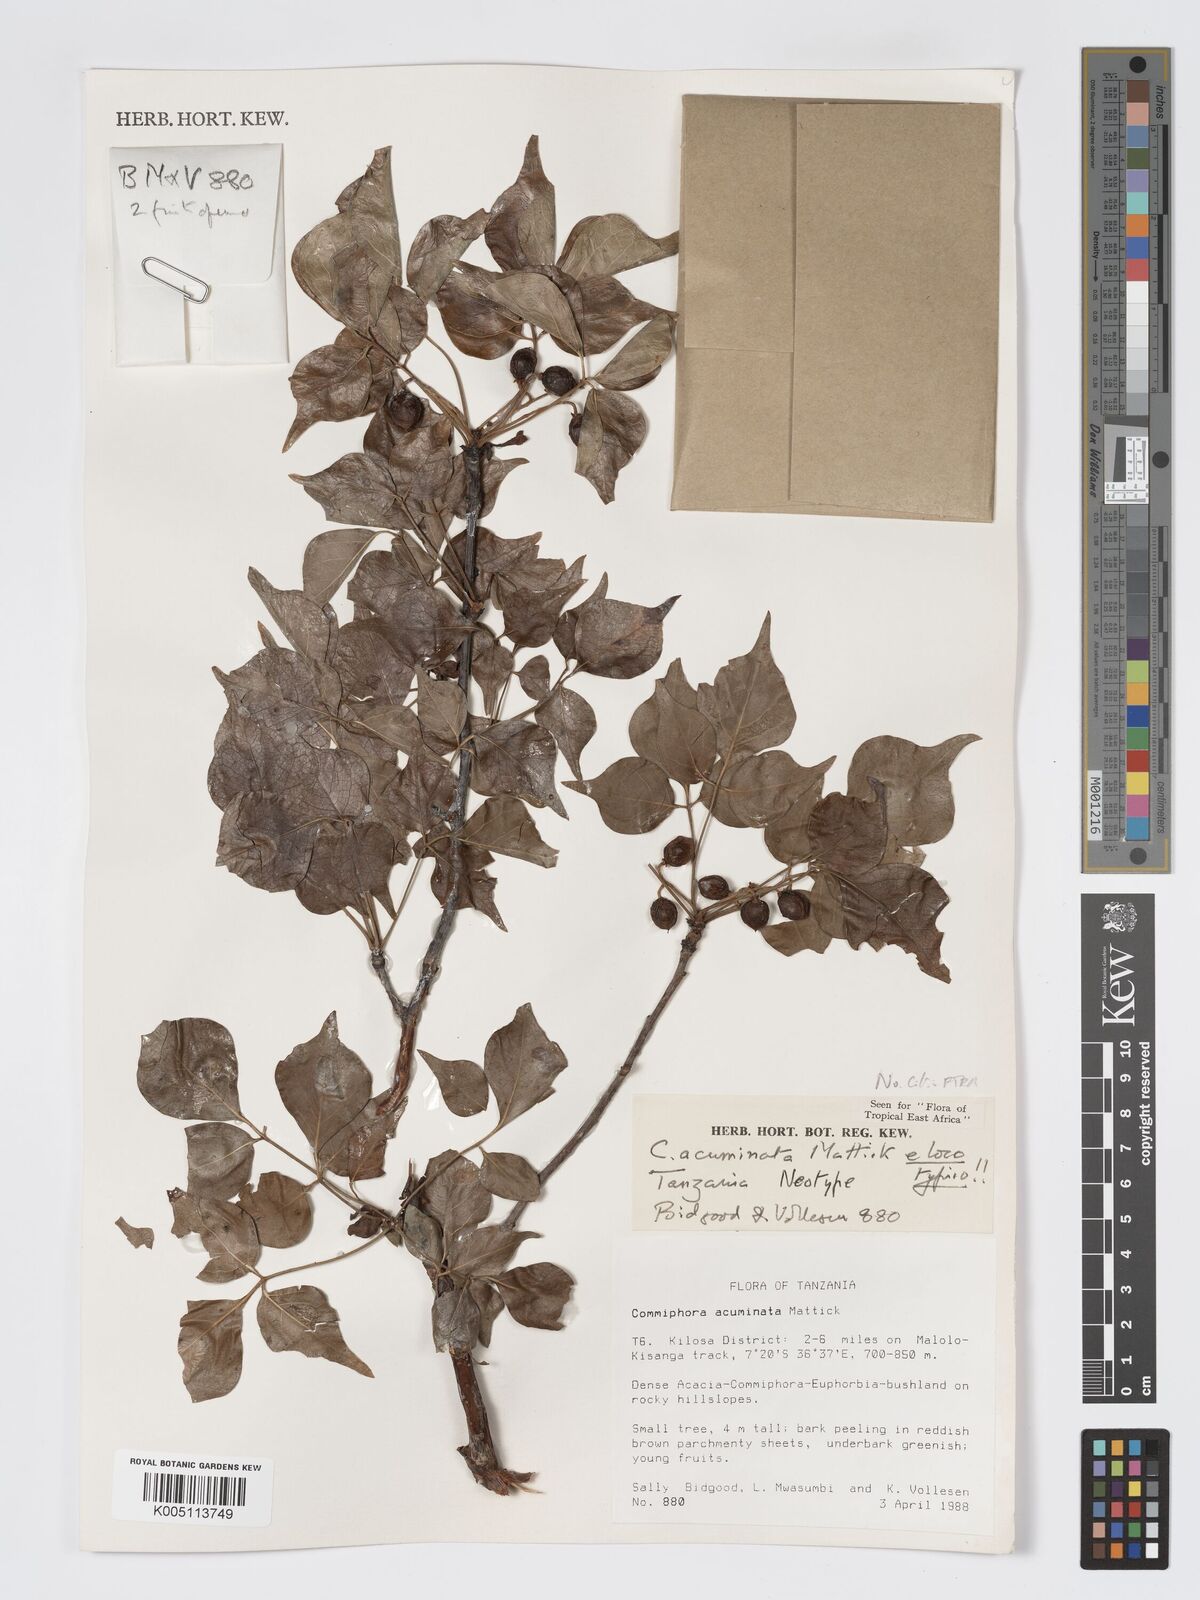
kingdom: Plantae
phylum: Tracheophyta
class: Magnoliopsida
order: Sapindales
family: Burseraceae
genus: Commiphora
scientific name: Commiphora acuminata
